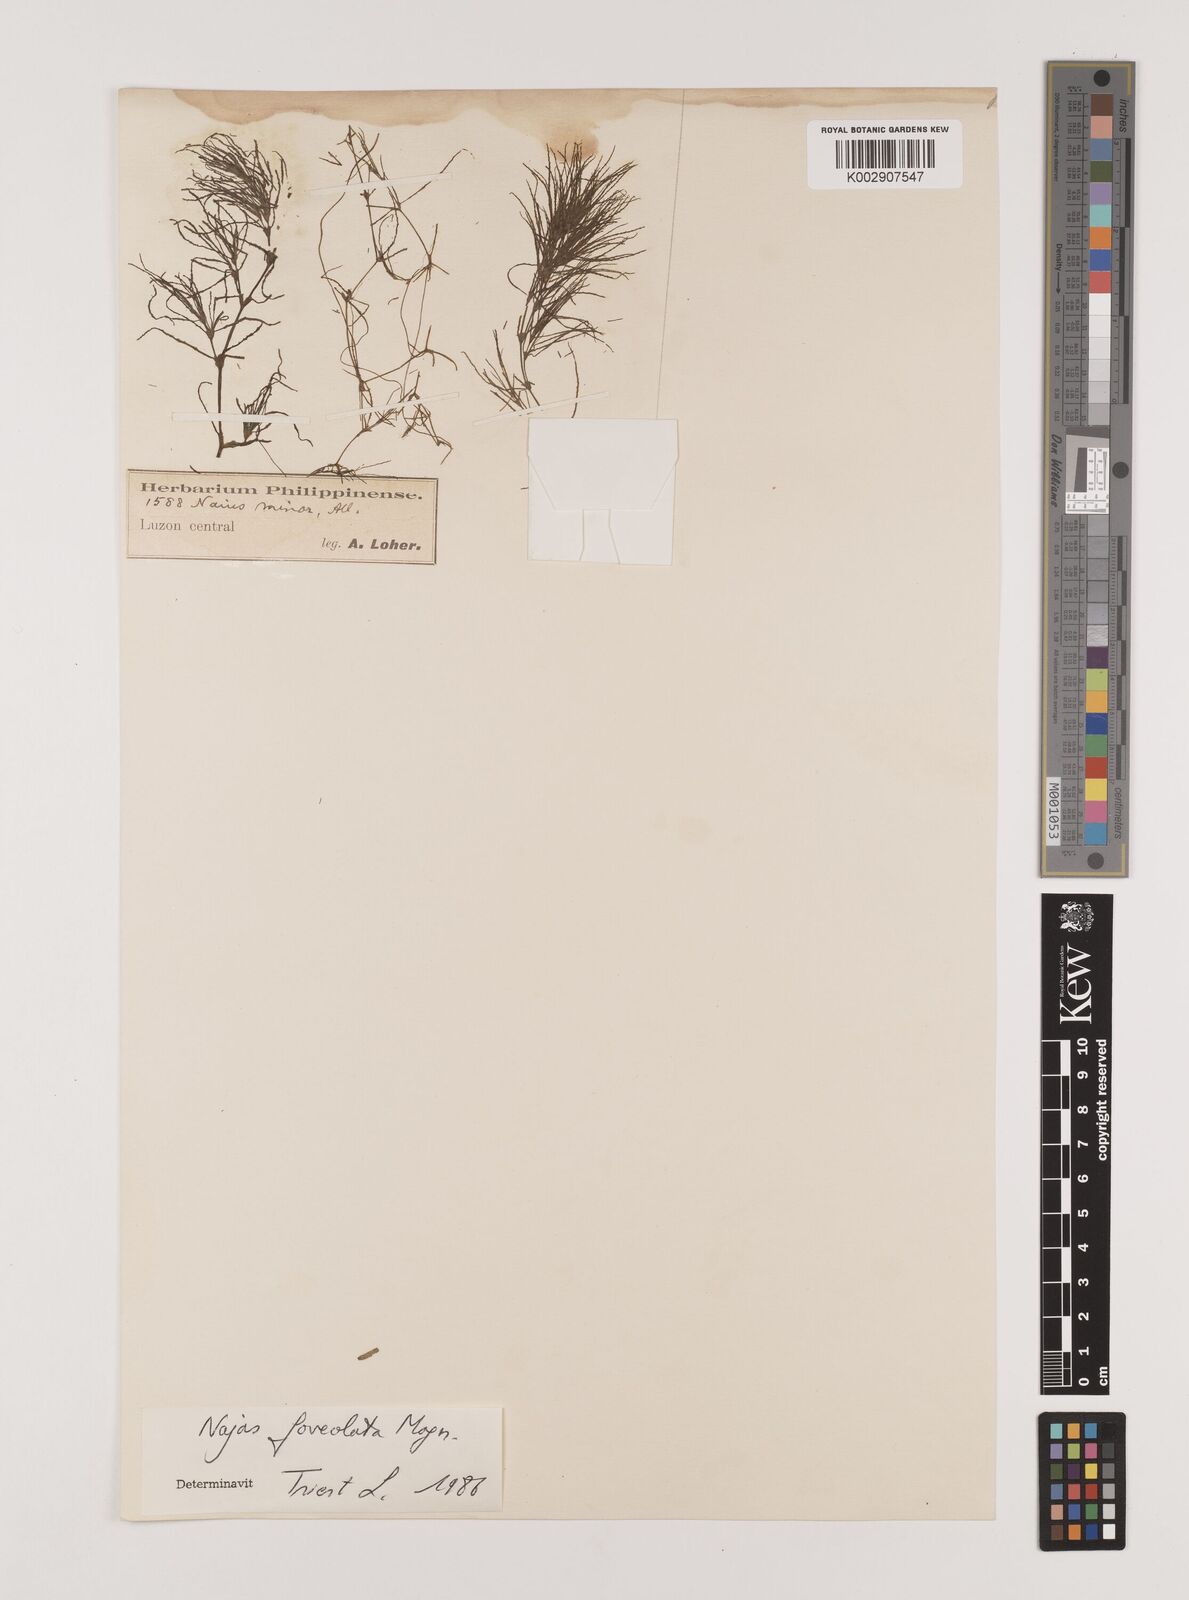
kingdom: Plantae
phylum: Tracheophyta
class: Liliopsida
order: Alismatales
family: Hydrocharitaceae
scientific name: Hydrocharitaceae
